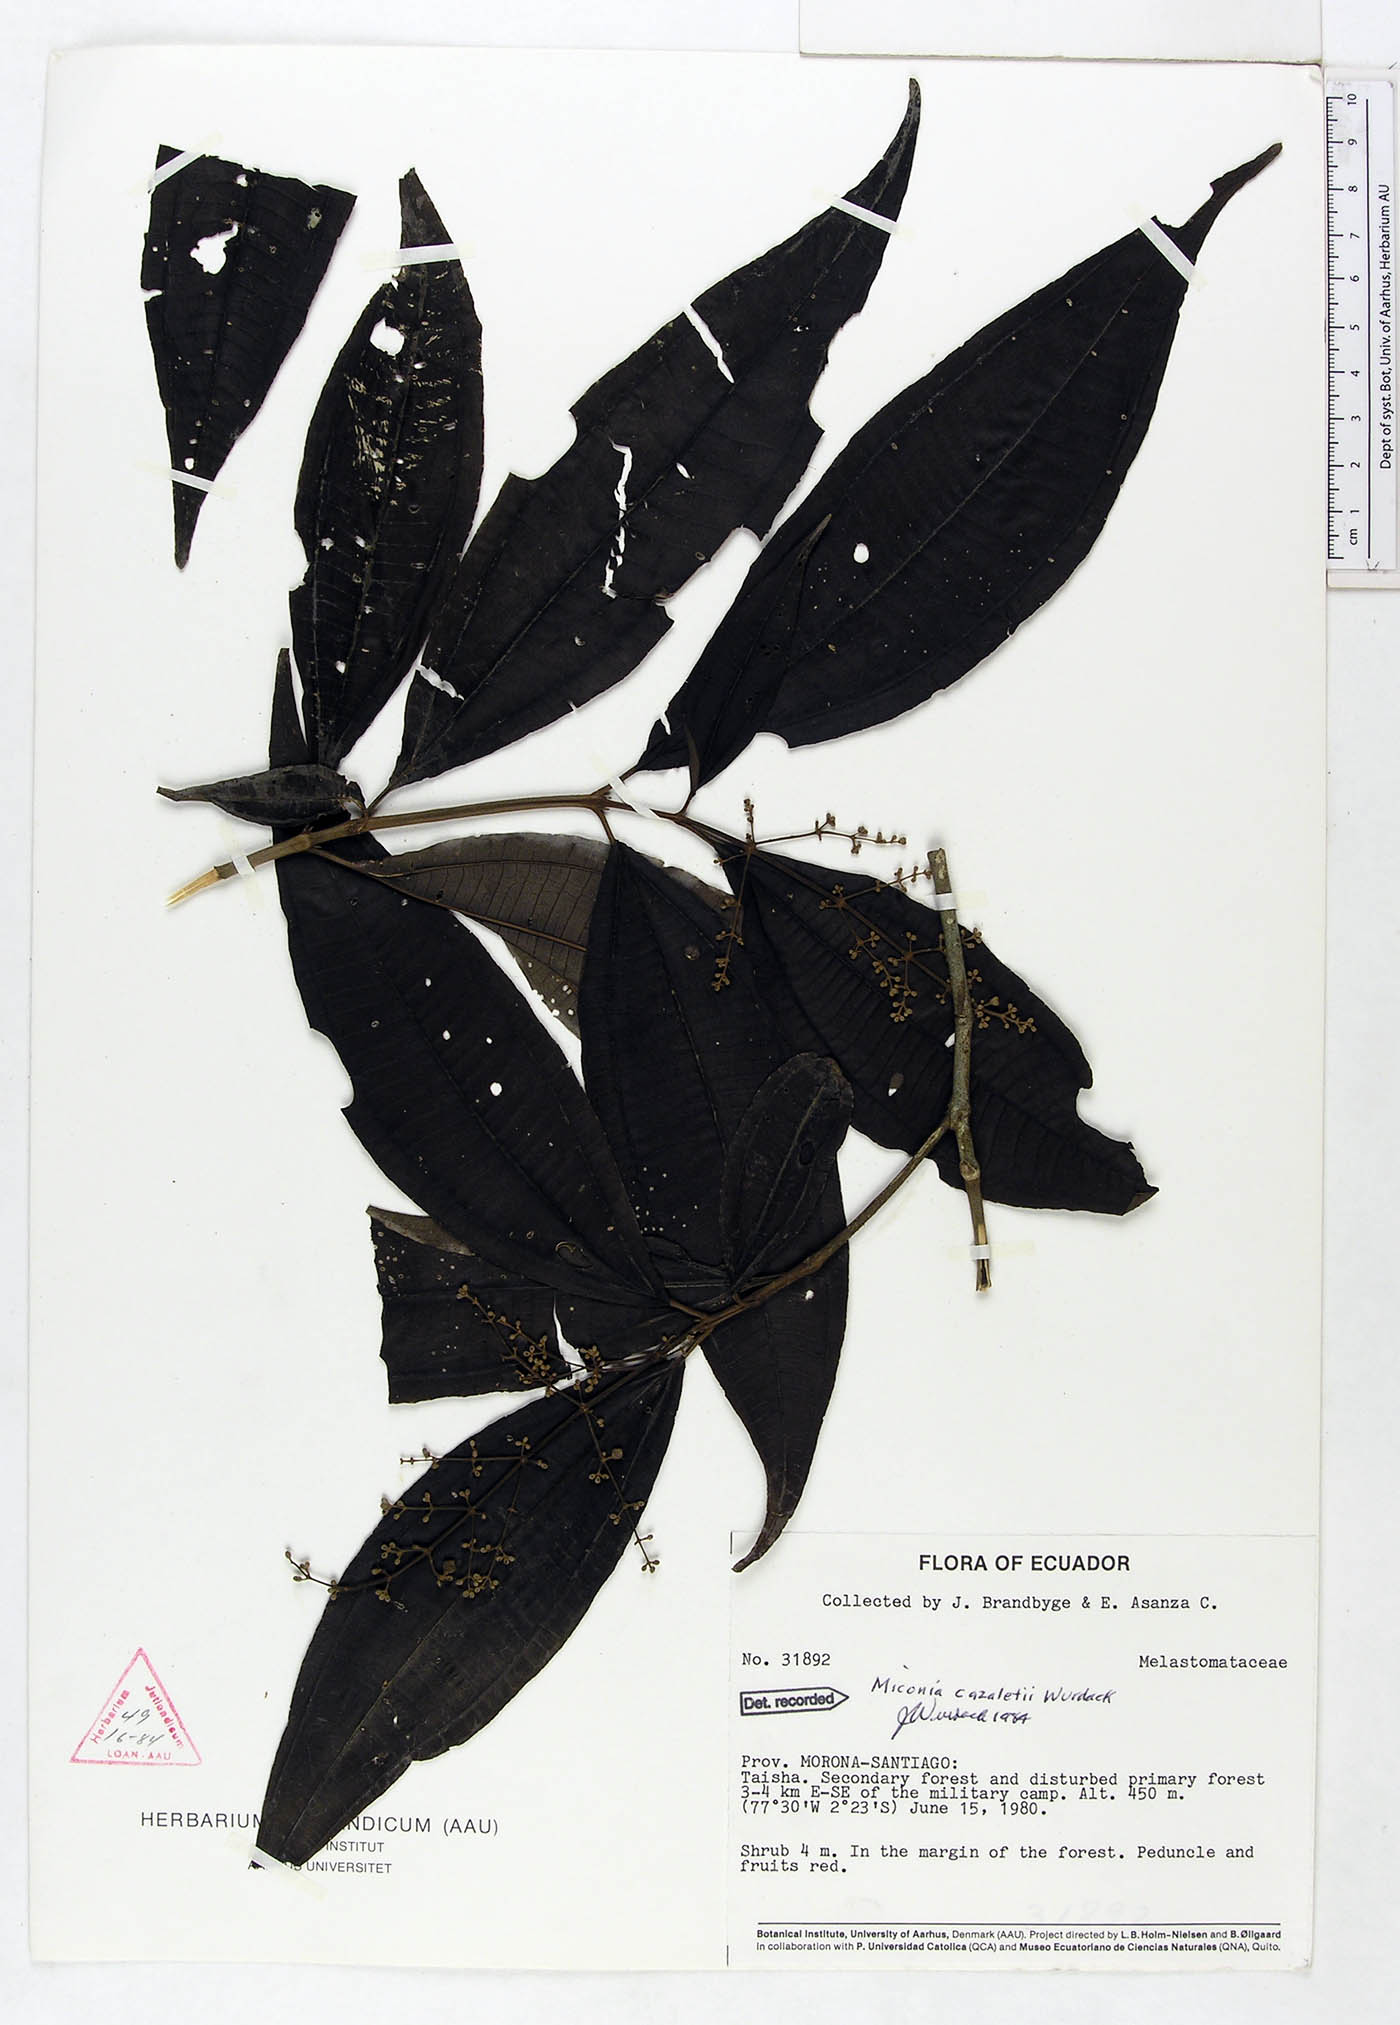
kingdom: Plantae
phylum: Tracheophyta
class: Magnoliopsida
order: Myrtales
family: Melastomataceae
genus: Miconia
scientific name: Miconia cazaletii
